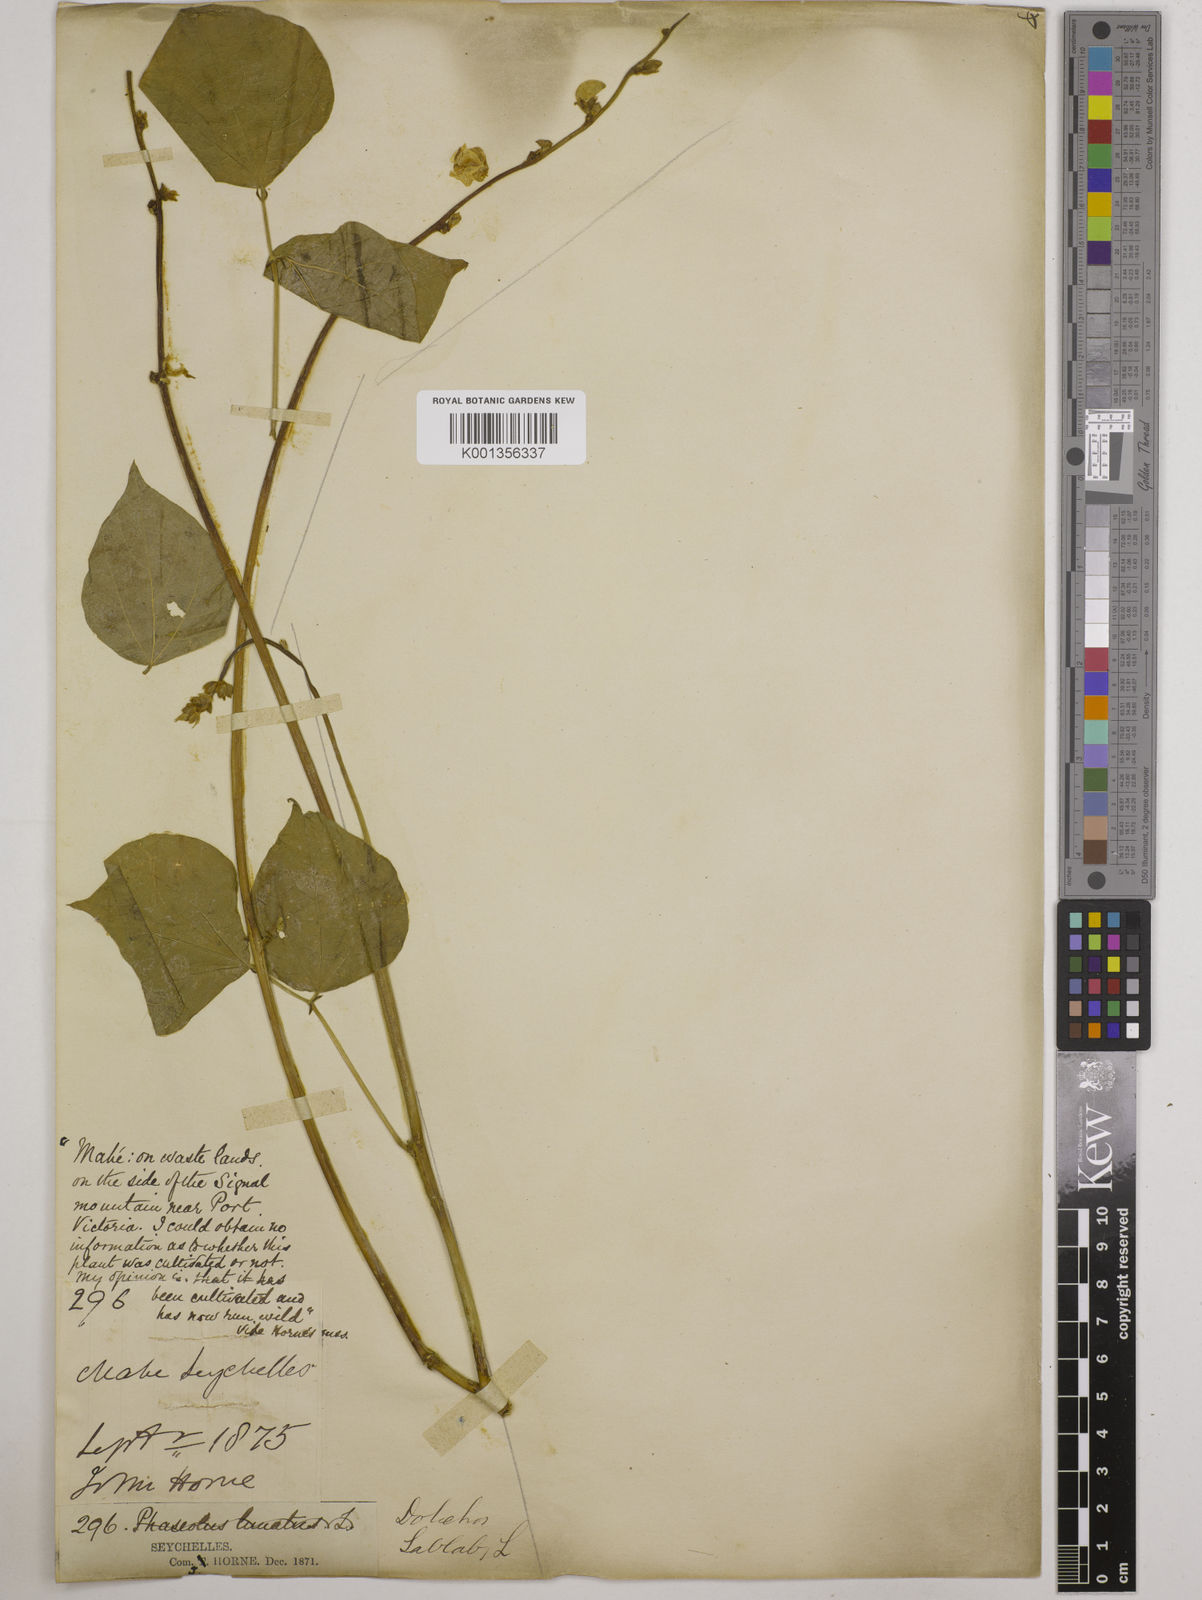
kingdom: Plantae
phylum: Tracheophyta
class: Magnoliopsida
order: Fabales
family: Fabaceae
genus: Lablab
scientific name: Lablab purpureus
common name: Lablab-bean
